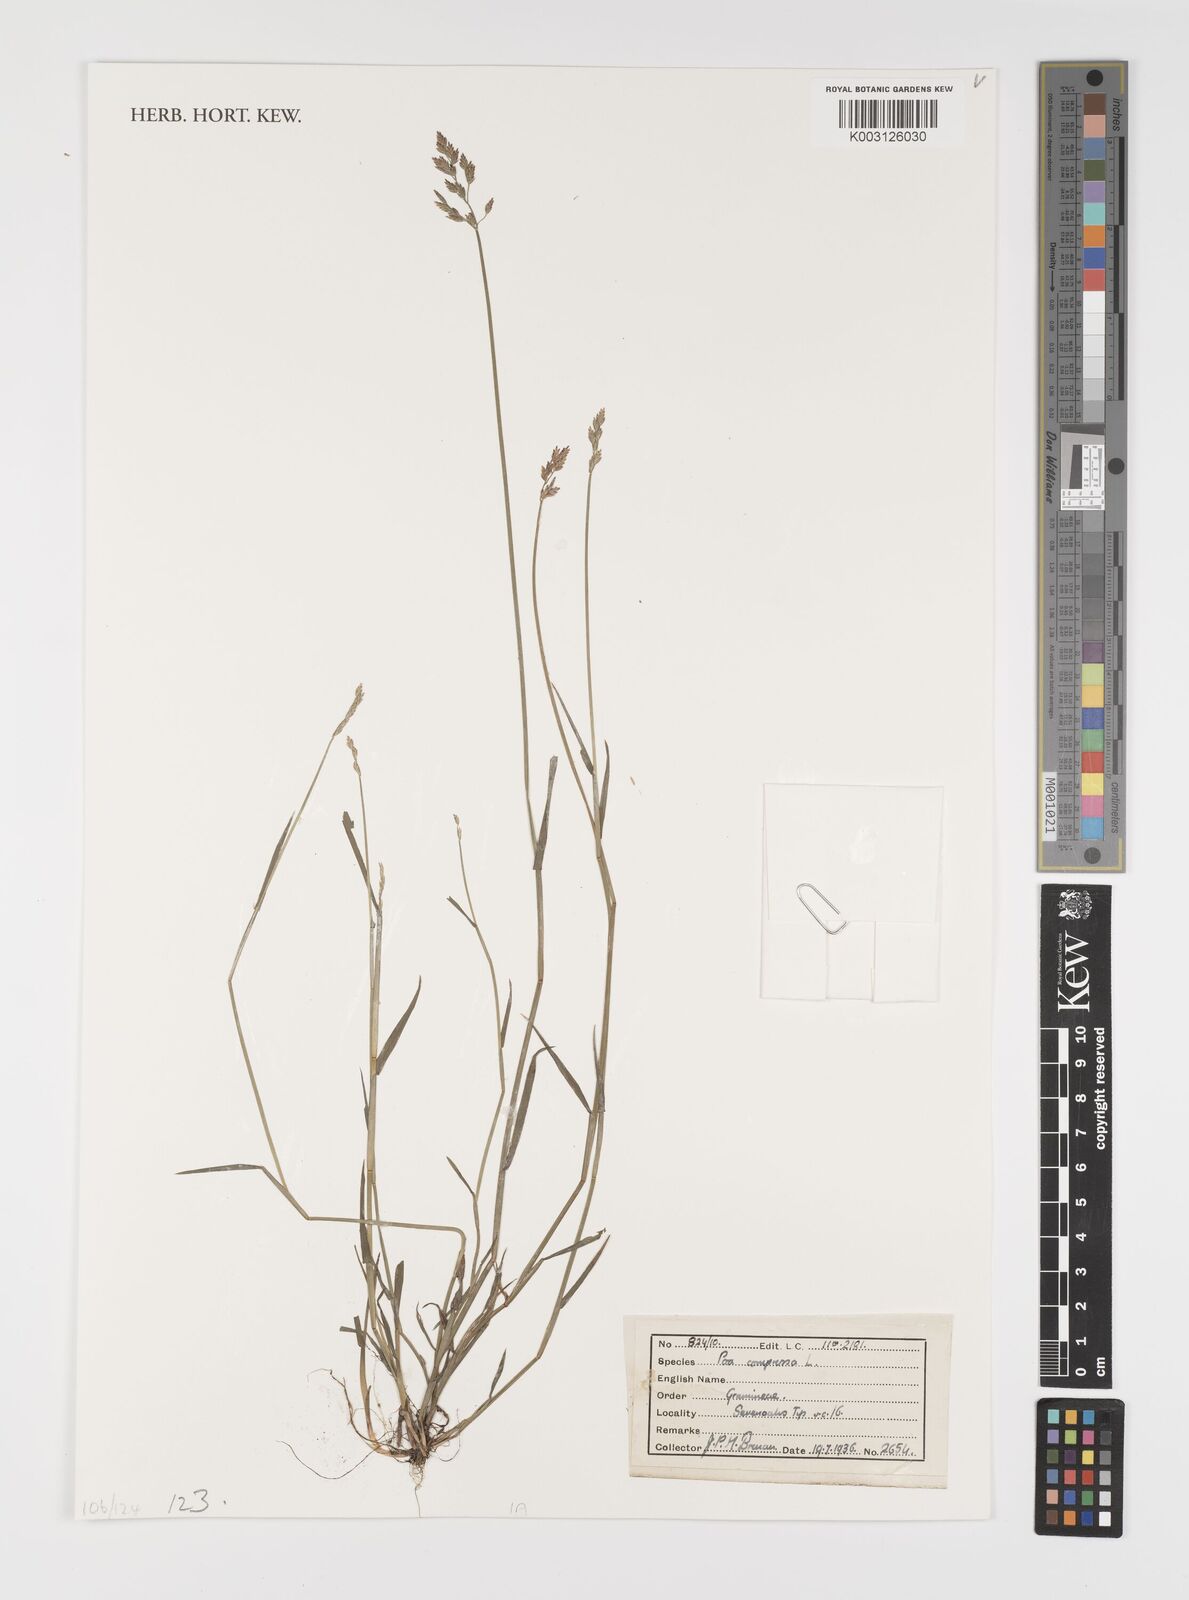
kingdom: Plantae
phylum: Tracheophyta
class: Liliopsida
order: Poales
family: Poaceae
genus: Poa
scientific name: Poa compressa
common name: Canada bluegrass
